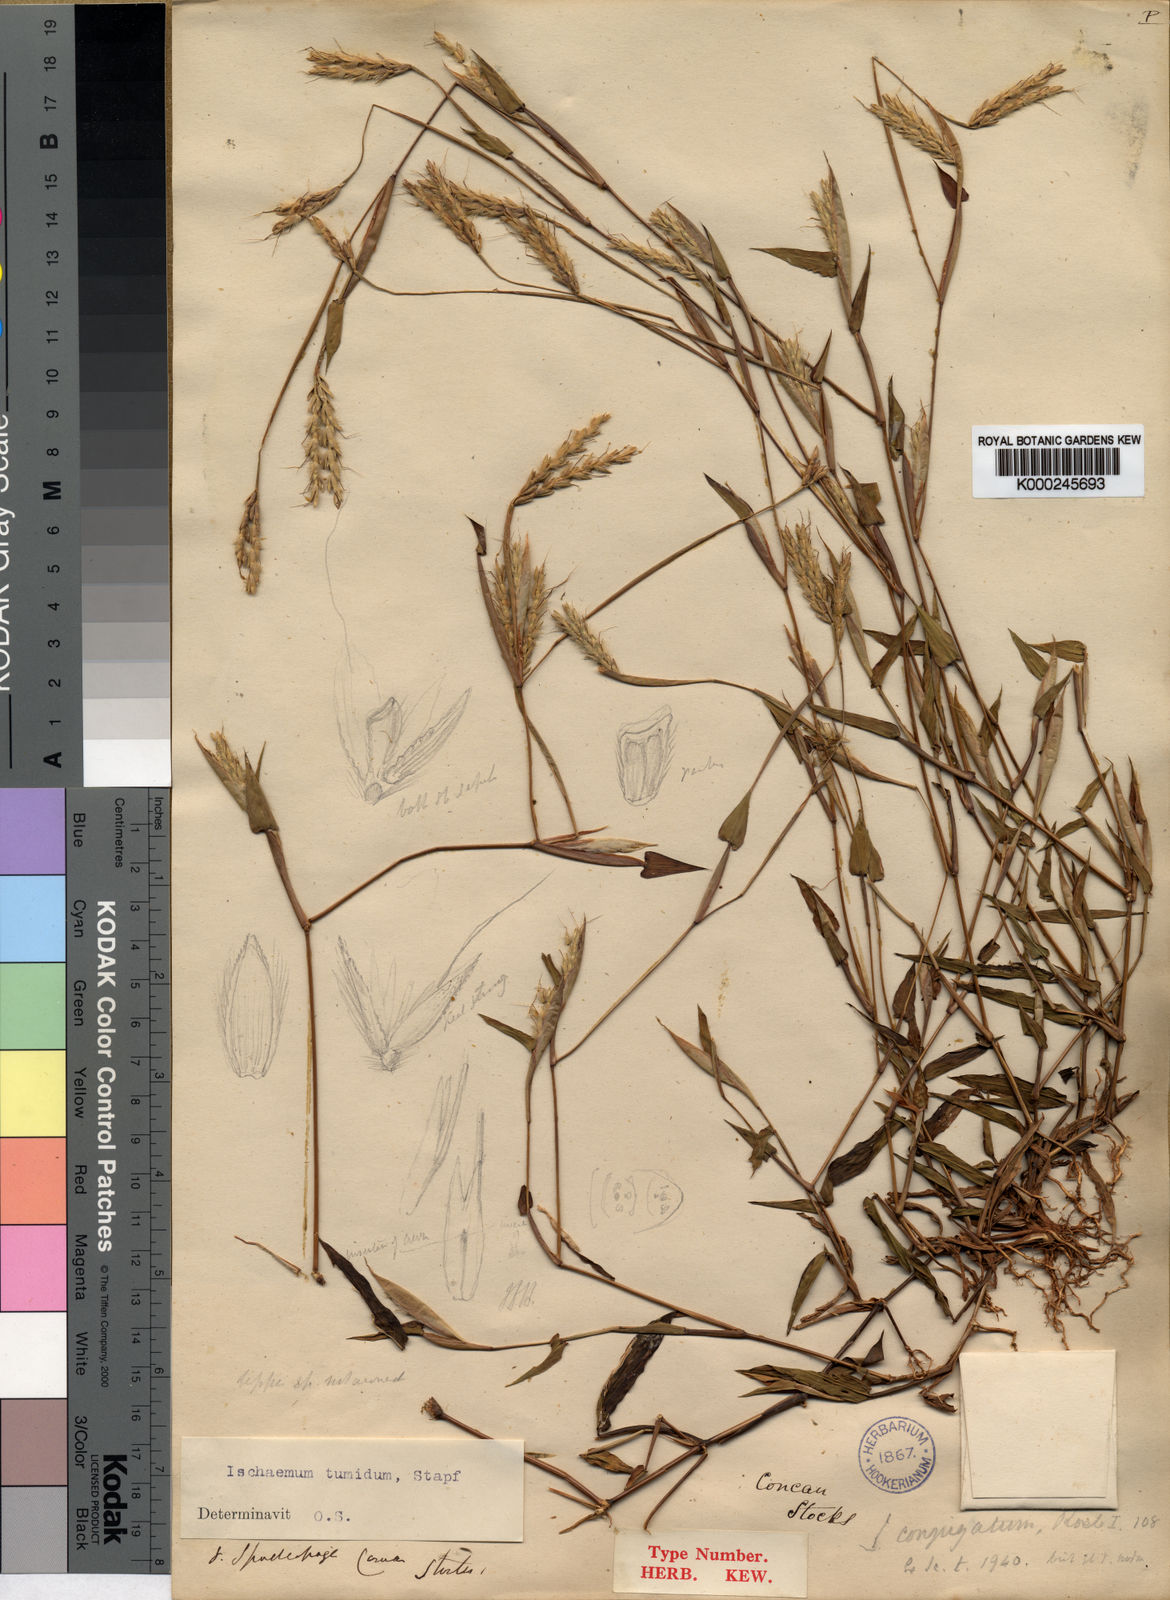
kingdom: Plantae
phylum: Tracheophyta
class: Liliopsida
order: Poales
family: Poaceae
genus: Ischaemum
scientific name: Ischaemum tumidum
